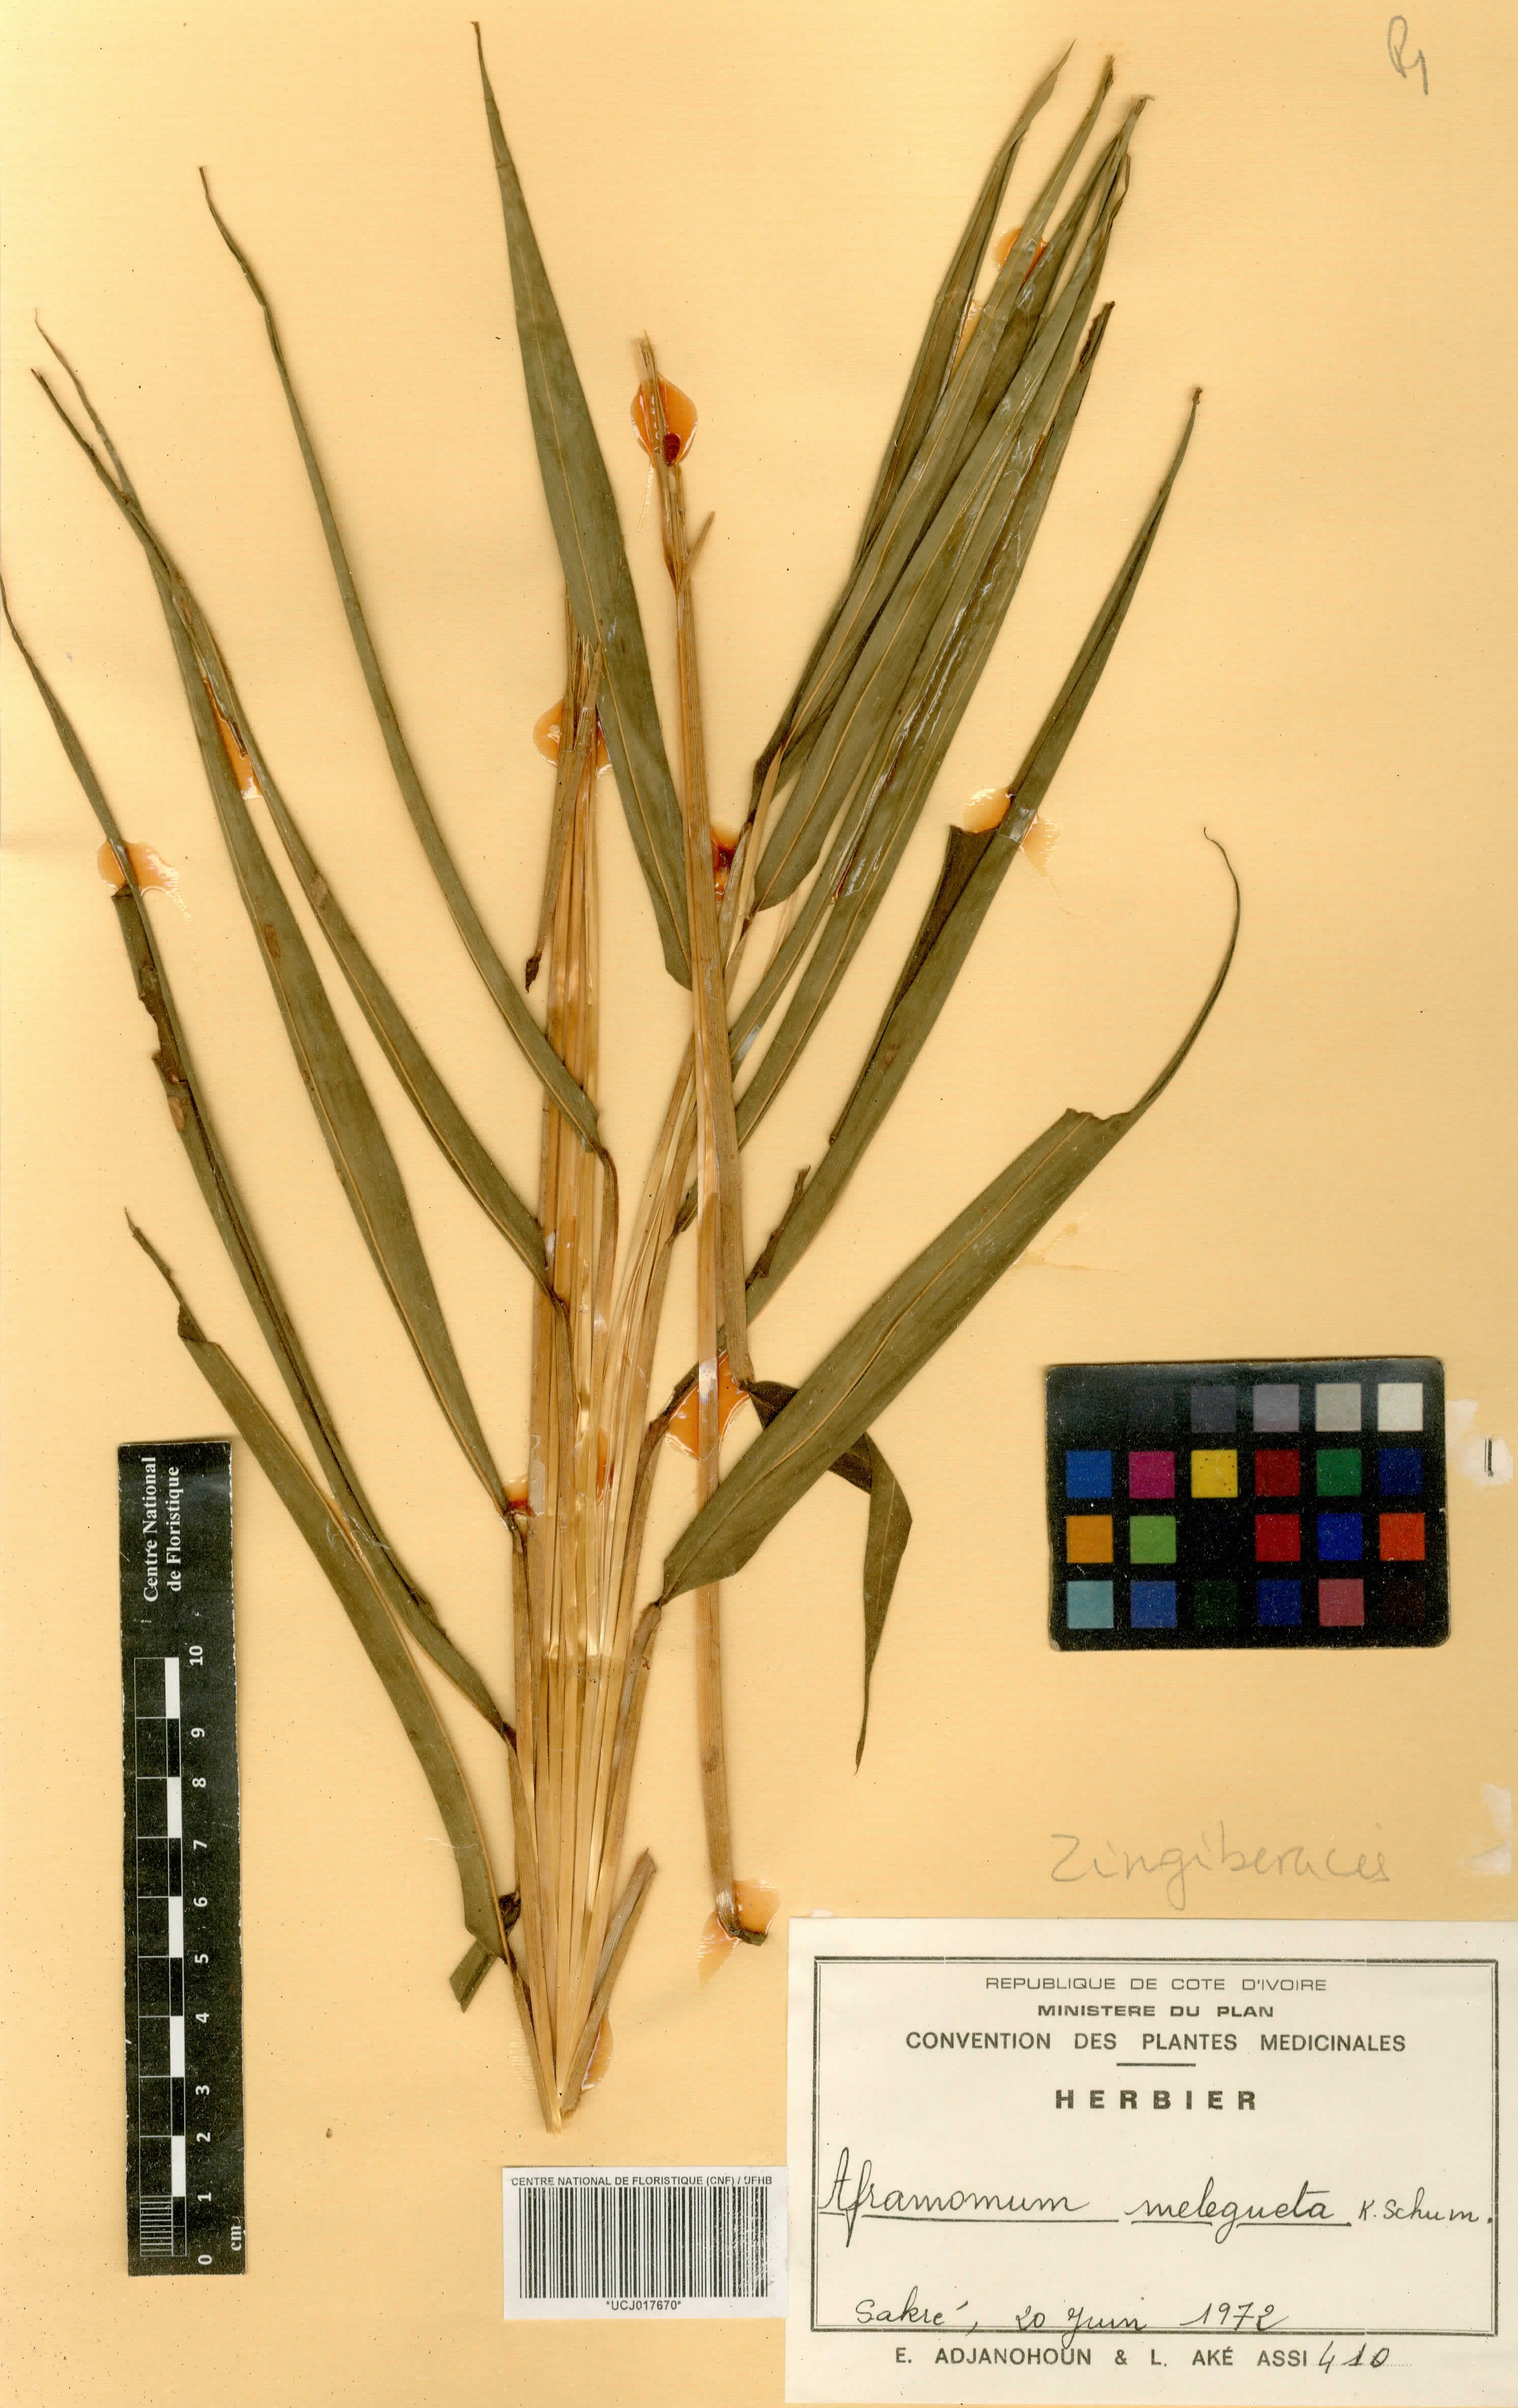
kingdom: Plantae
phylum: Tracheophyta
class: Liliopsida
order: Zingiberales
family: Zingiberaceae
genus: Aframomum
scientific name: Aframomum melegueta
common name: Grains of paradise
